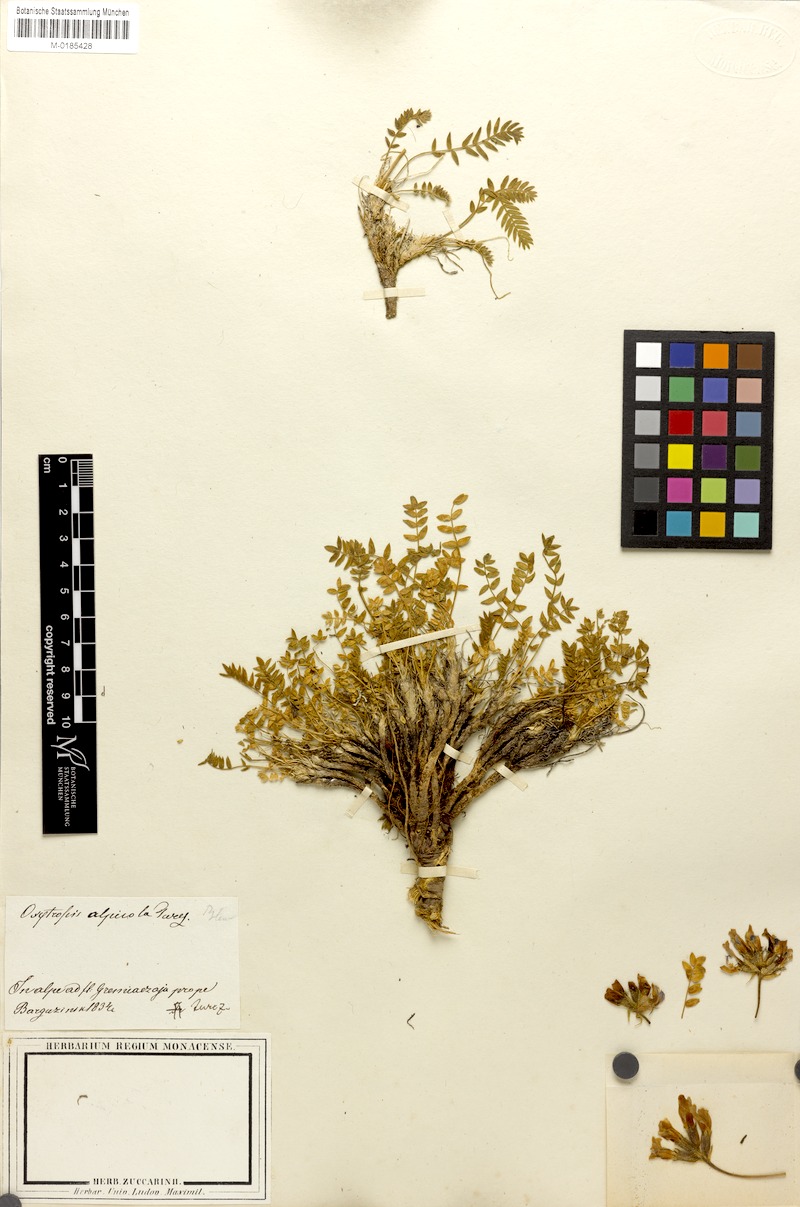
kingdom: Plantae
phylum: Tracheophyta
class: Magnoliopsida
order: Fabales
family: Fabaceae
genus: Oxytropis
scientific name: Oxytropis alpina
